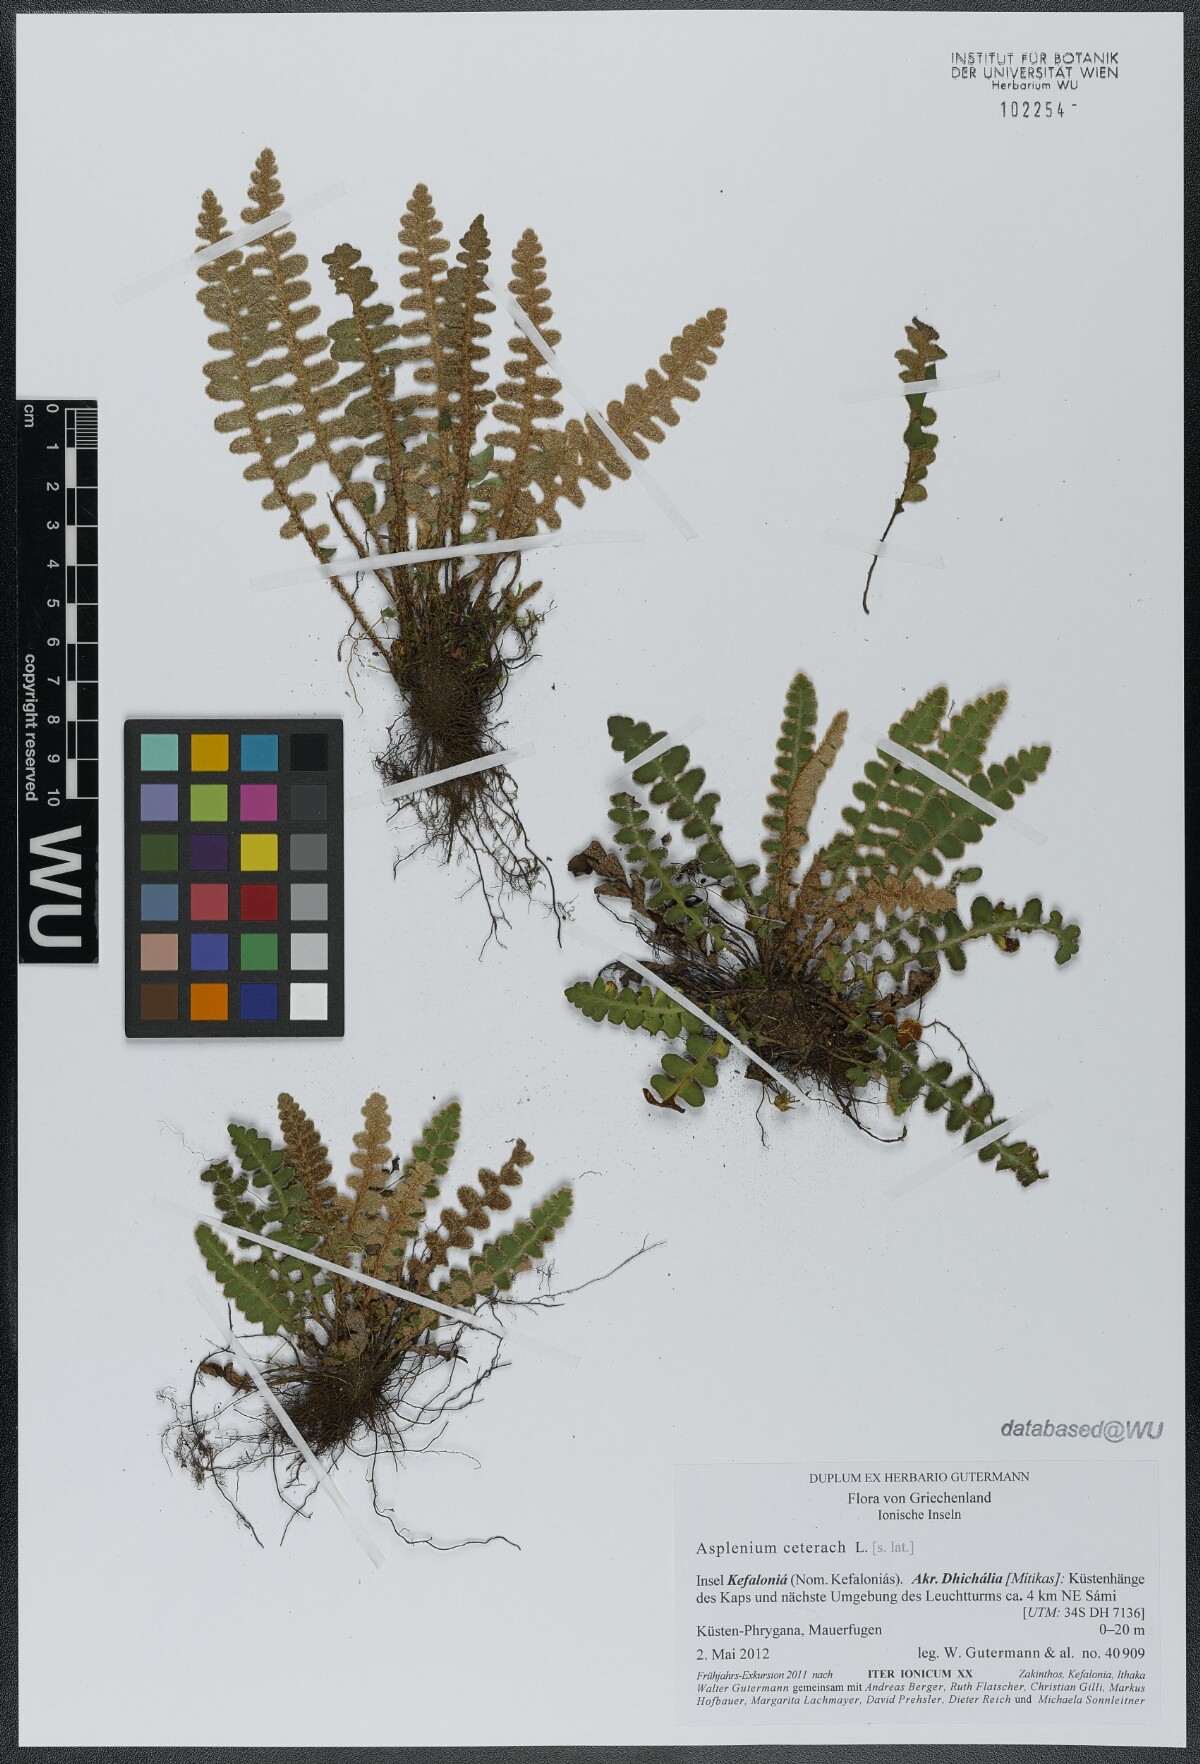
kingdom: Plantae
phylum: Tracheophyta
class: Polypodiopsida
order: Polypodiales
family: Aspleniaceae
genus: Asplenium
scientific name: Asplenium ceterach
